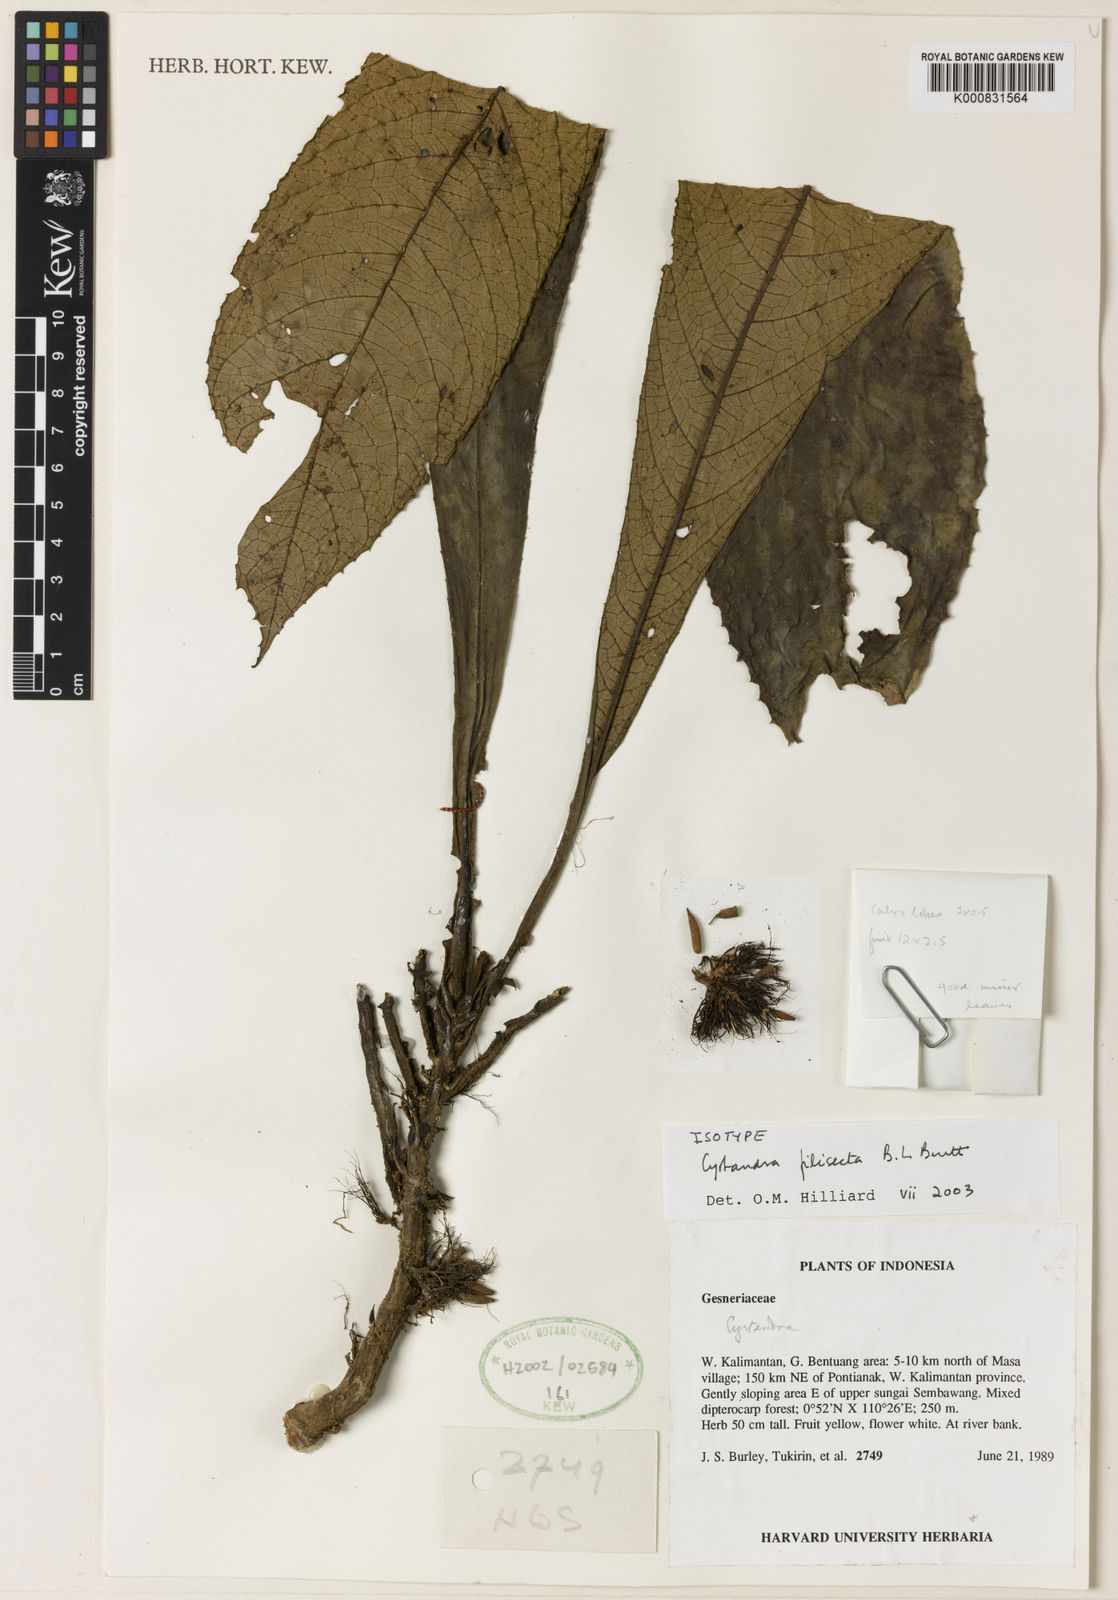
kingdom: Plantae
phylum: Tracheophyta
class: Magnoliopsida
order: Lamiales
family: Gesneriaceae
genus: Cyrtandra
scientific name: Cyrtandra filisecta
